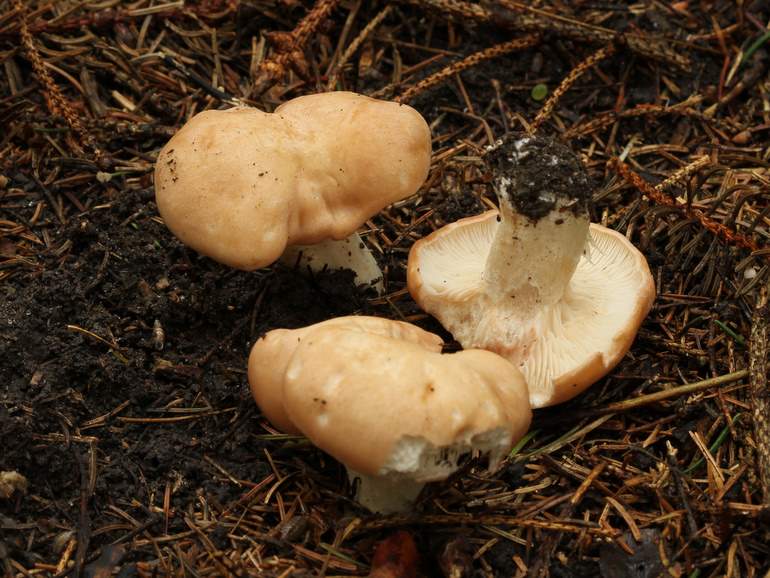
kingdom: Fungi
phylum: Basidiomycota
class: Agaricomycetes
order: Agaricales
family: Entolomataceae
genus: Clitopilus
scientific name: Clitopilus geminus
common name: kødfarvet troldhat
